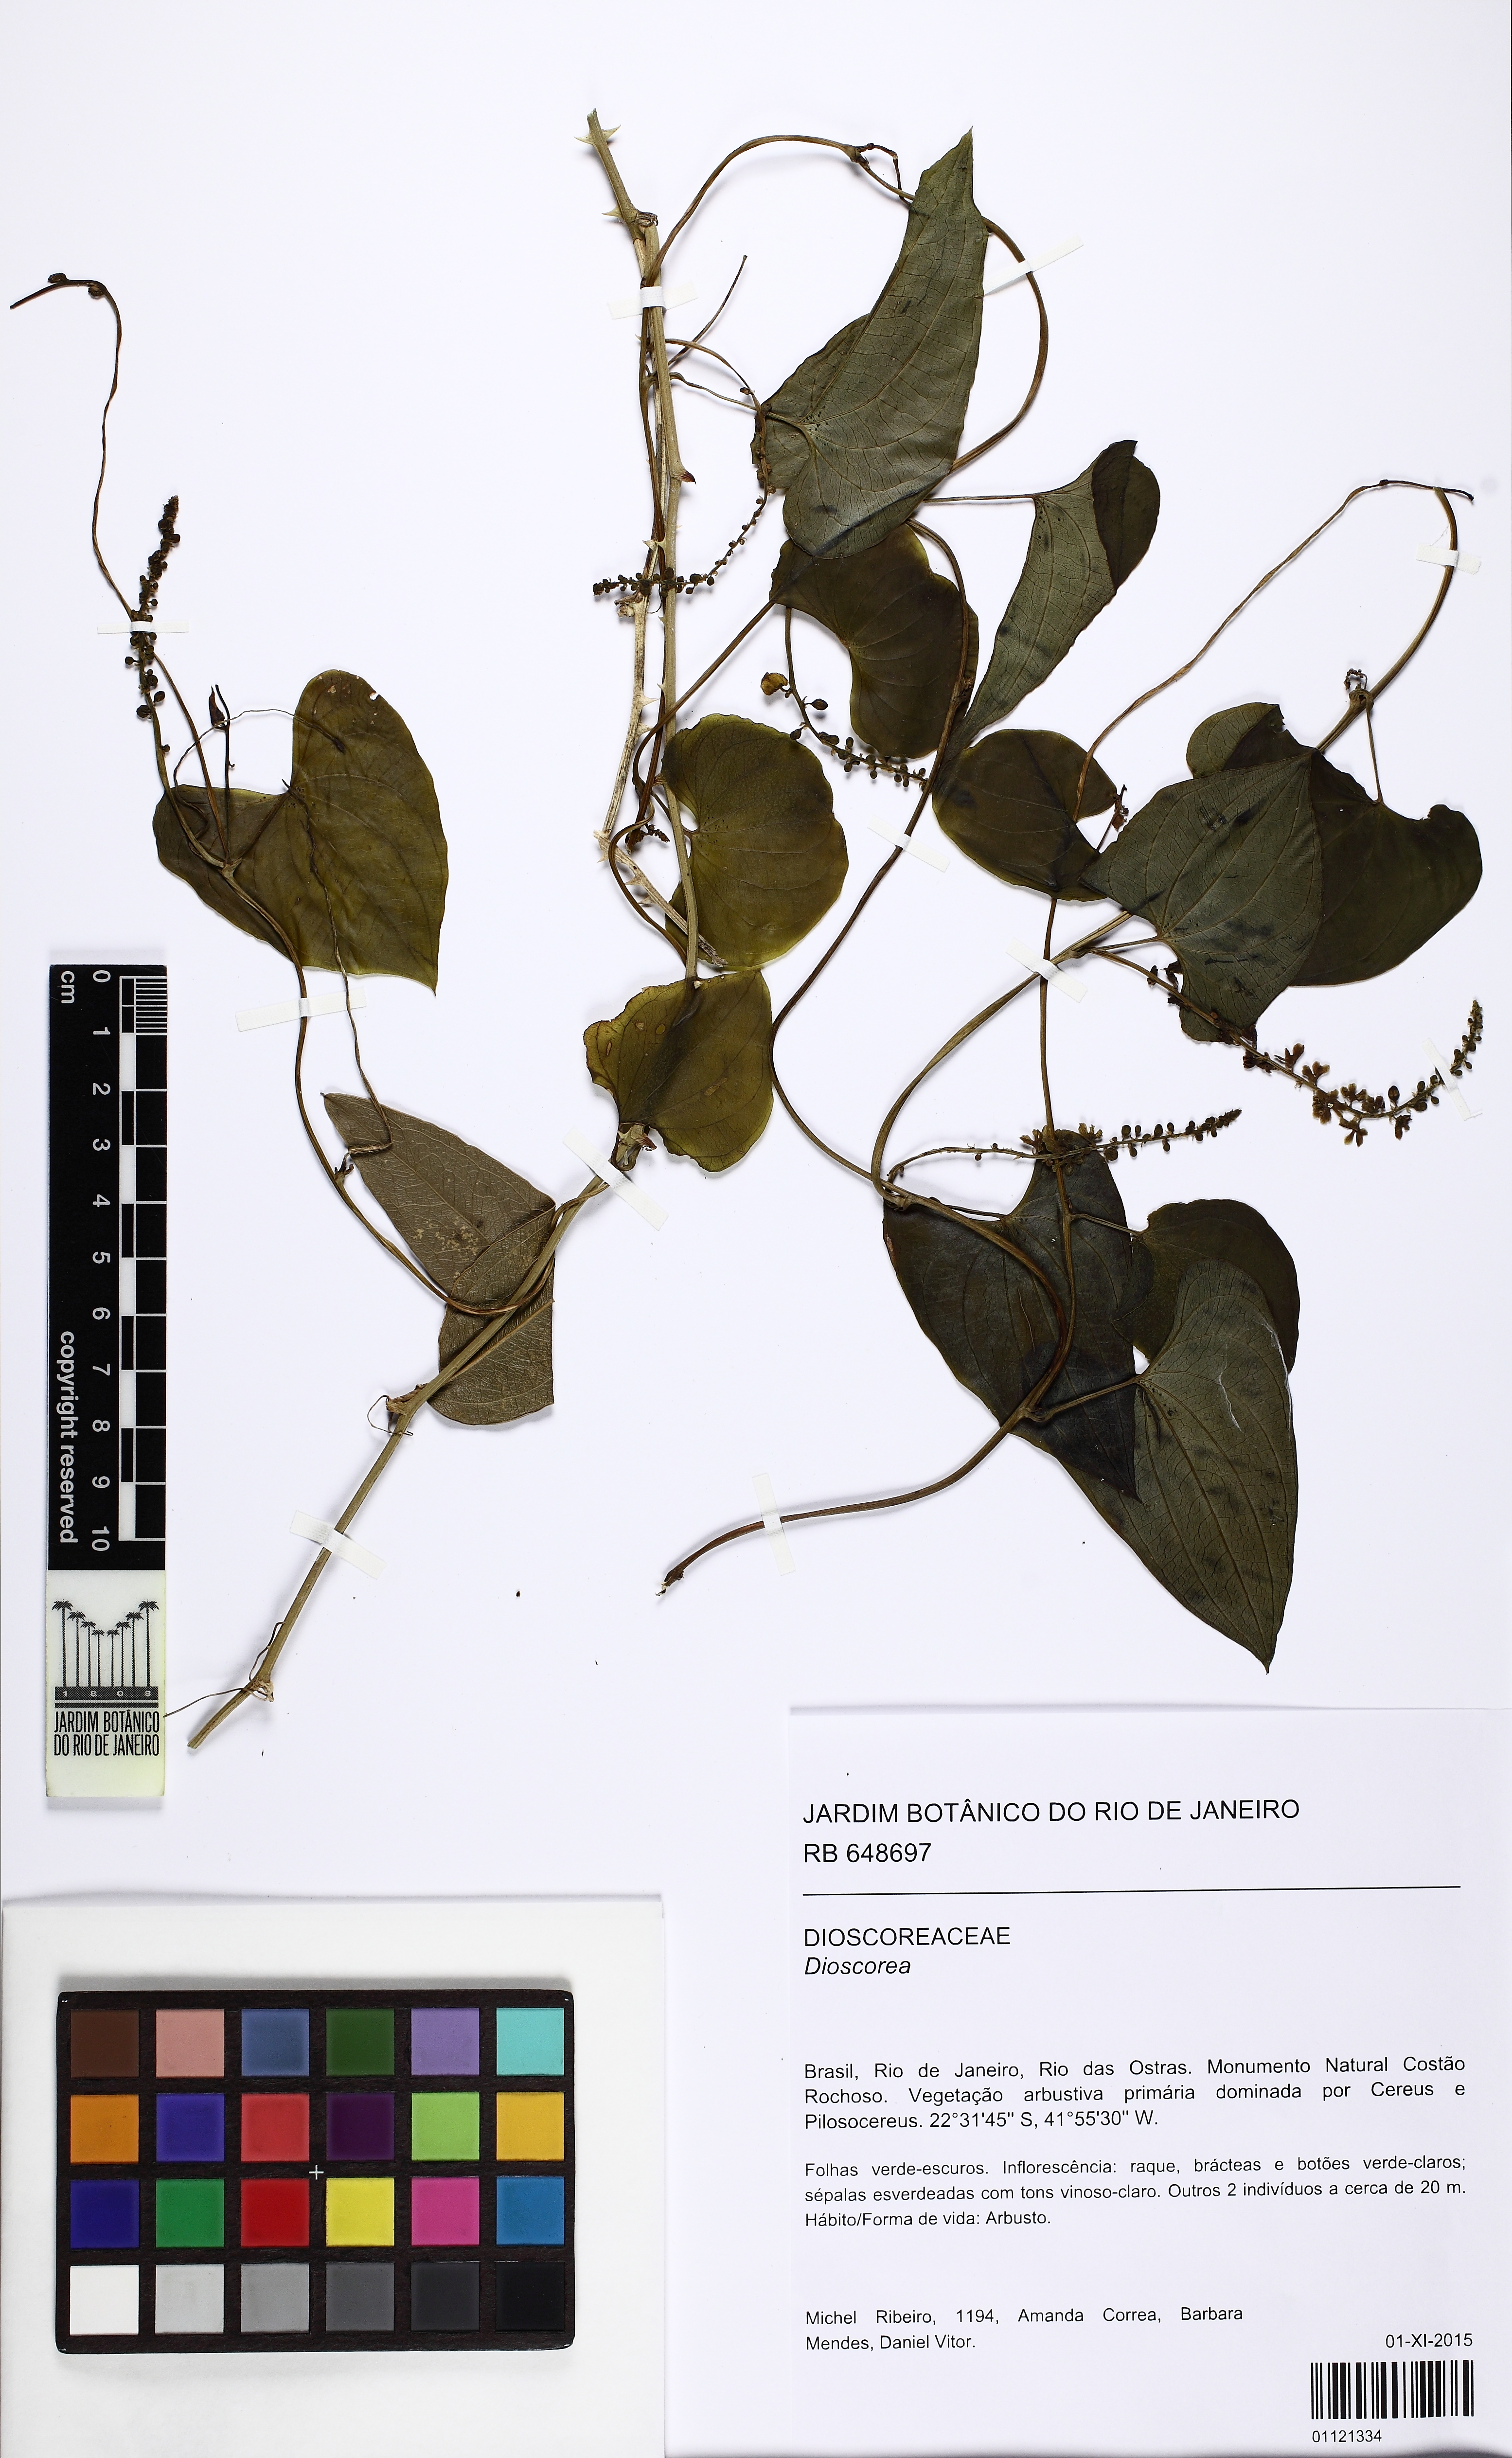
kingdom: Plantae
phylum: Tracheophyta
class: Liliopsida
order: Dioscoreales
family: Dioscoreaceae
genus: Dioscorea
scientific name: Dioscorea glandulosa
